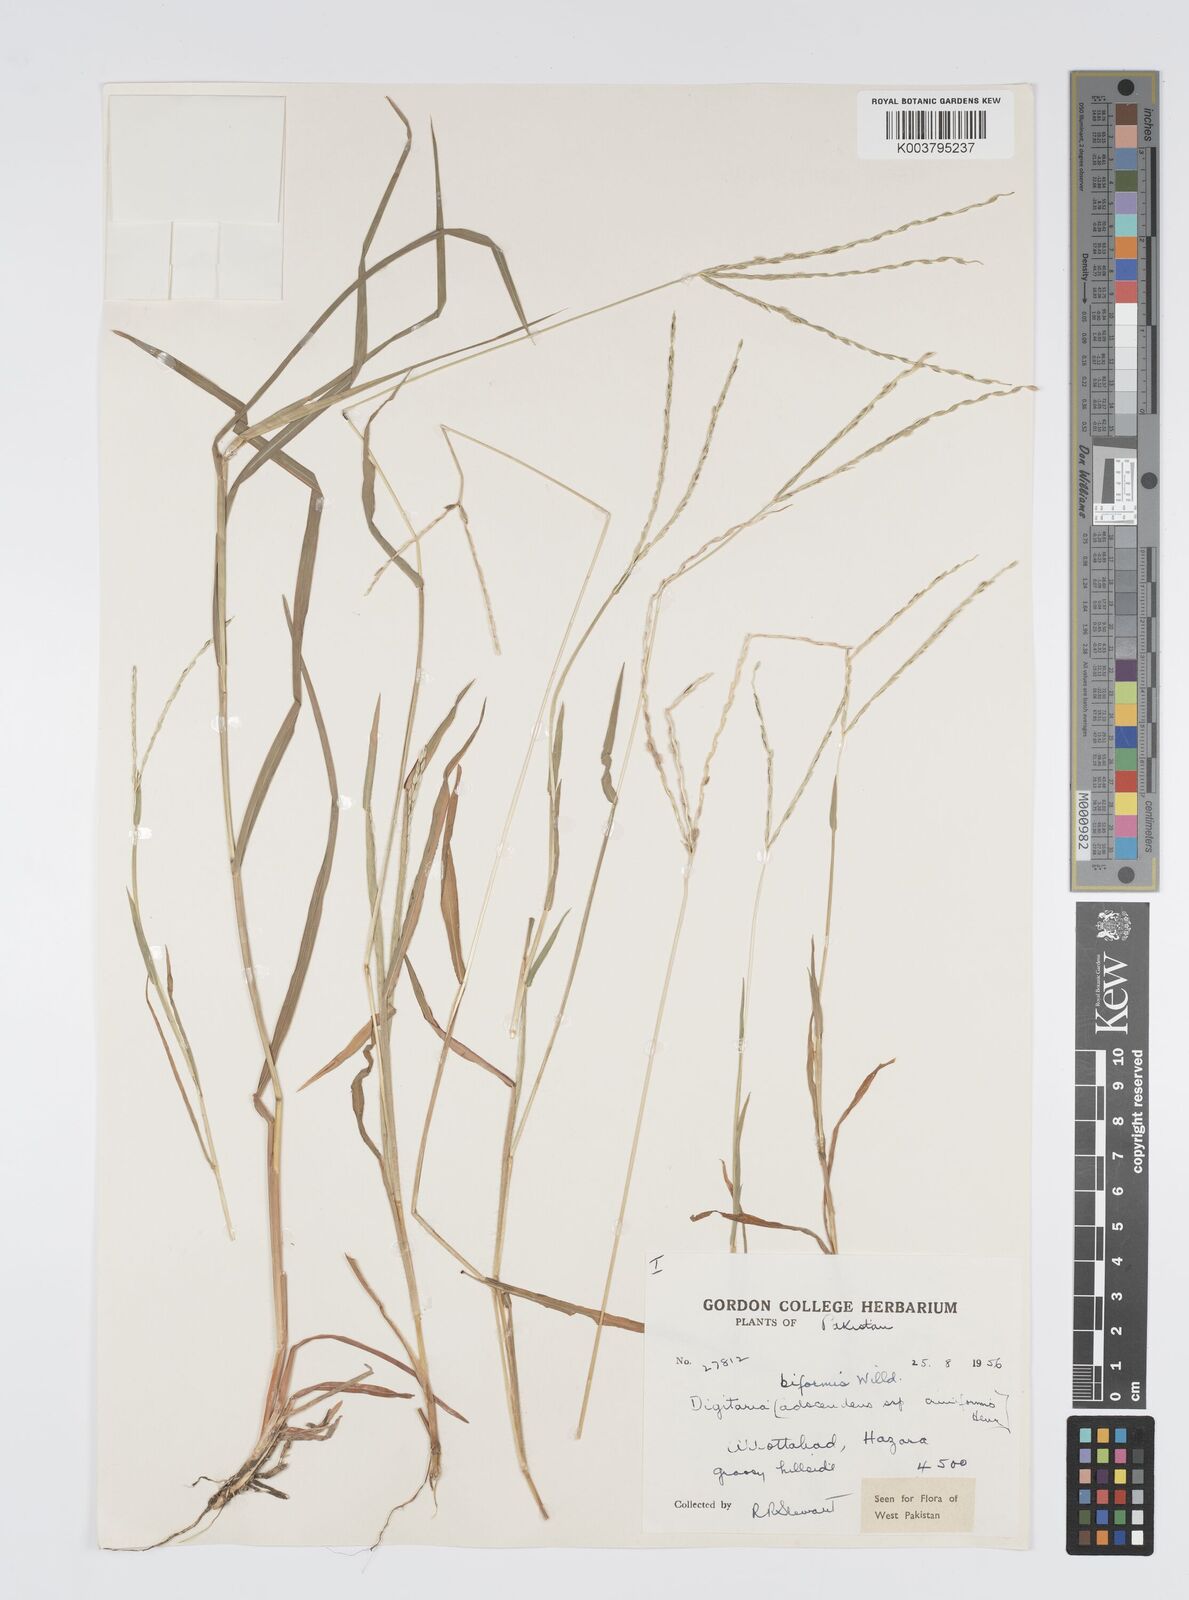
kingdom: Plantae
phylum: Tracheophyta
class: Liliopsida
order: Poales
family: Poaceae
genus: Digitaria
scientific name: Digitaria ciliaris
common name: Tropical finger-grass
